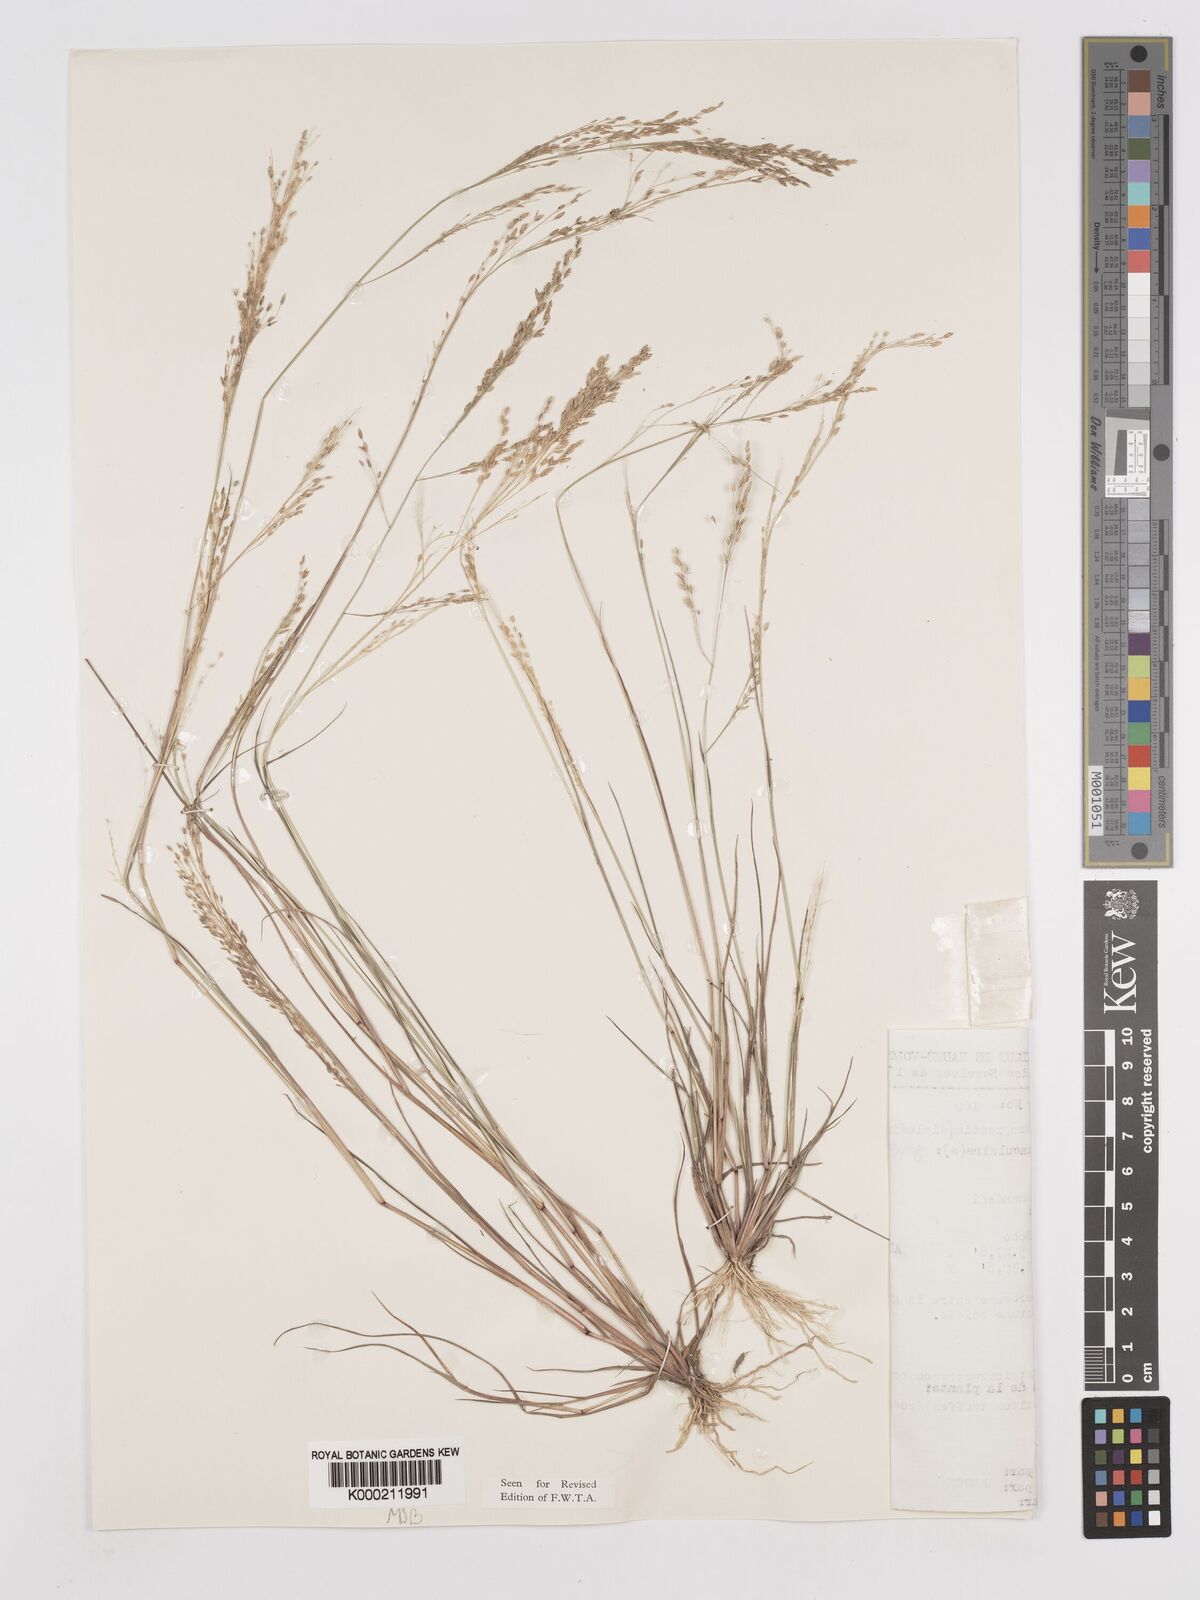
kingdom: Plantae
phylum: Tracheophyta
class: Liliopsida
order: Poales
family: Poaceae
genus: Eragrostis
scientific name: Eragrostis gangetica
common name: Slimflower lovegrass
